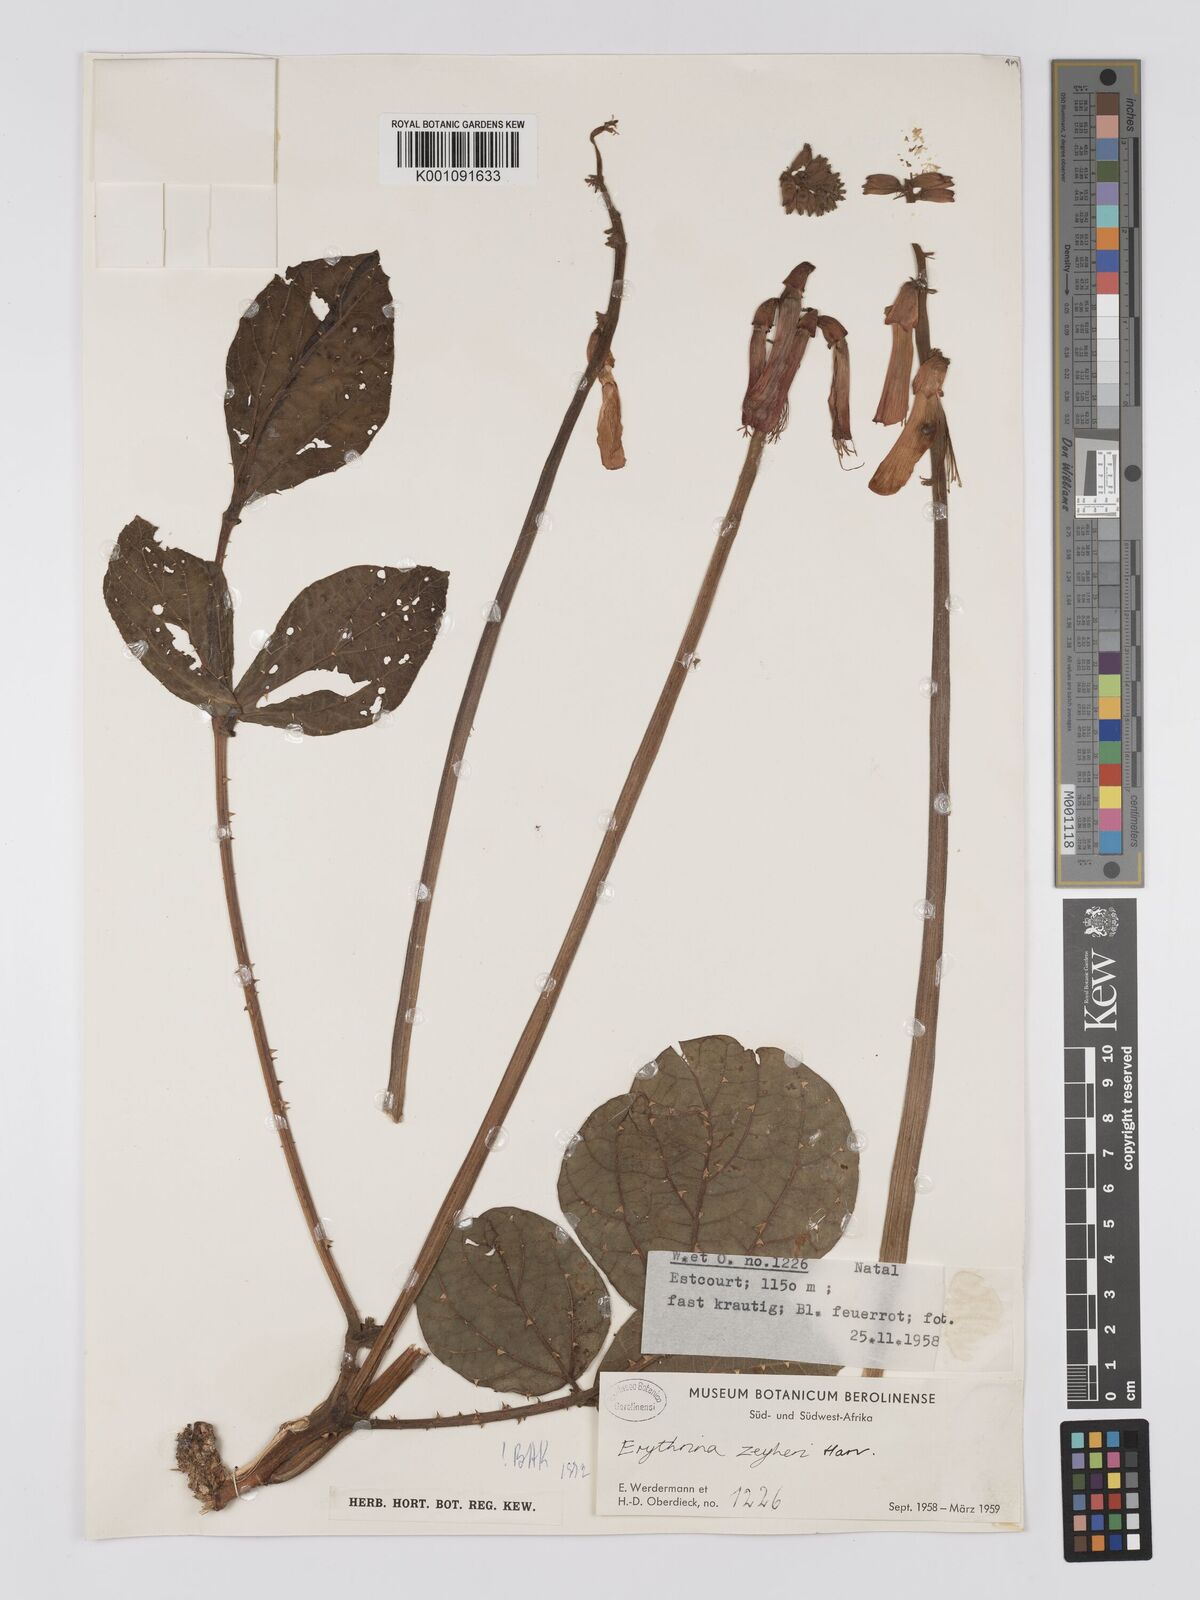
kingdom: Plantae
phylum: Tracheophyta
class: Magnoliopsida
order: Fabales
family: Fabaceae
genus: Erythrina
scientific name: Erythrina zeyheri
